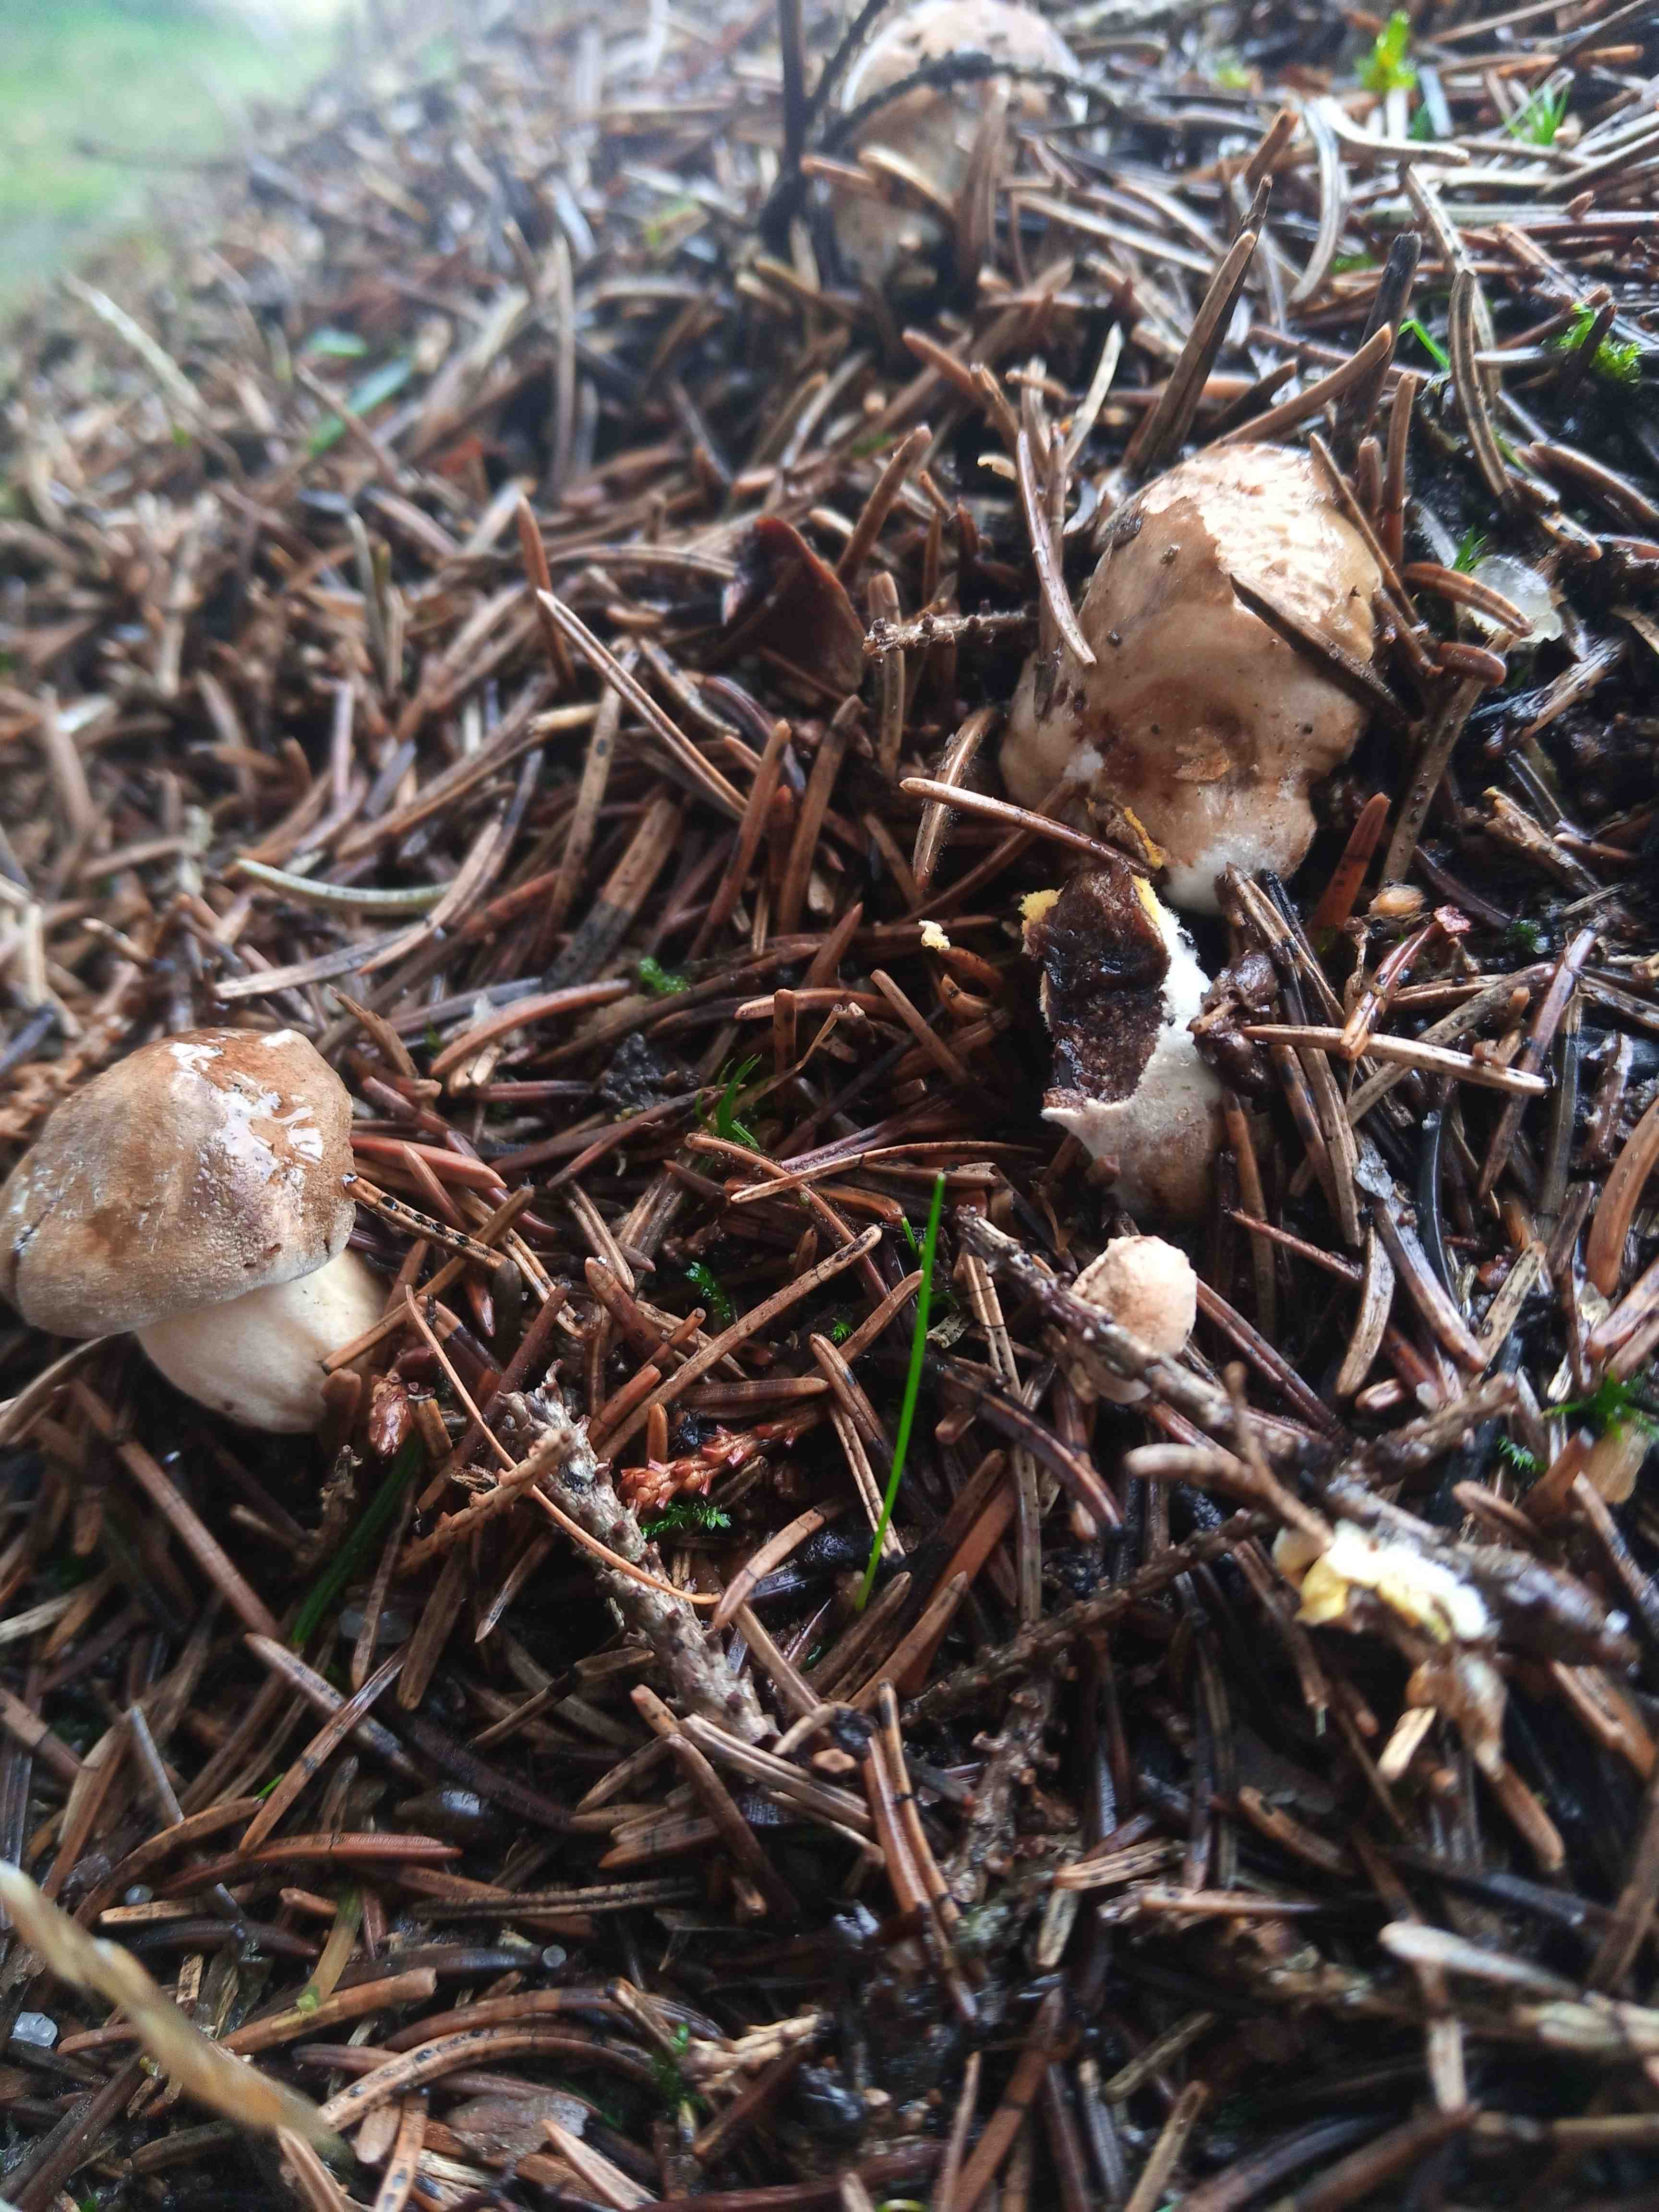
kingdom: Fungi
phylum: Basidiomycota
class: Agaricomycetes
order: Boletales
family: Paxillaceae
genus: Paxillus
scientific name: Paxillus involutus
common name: almindelig netbladhat
